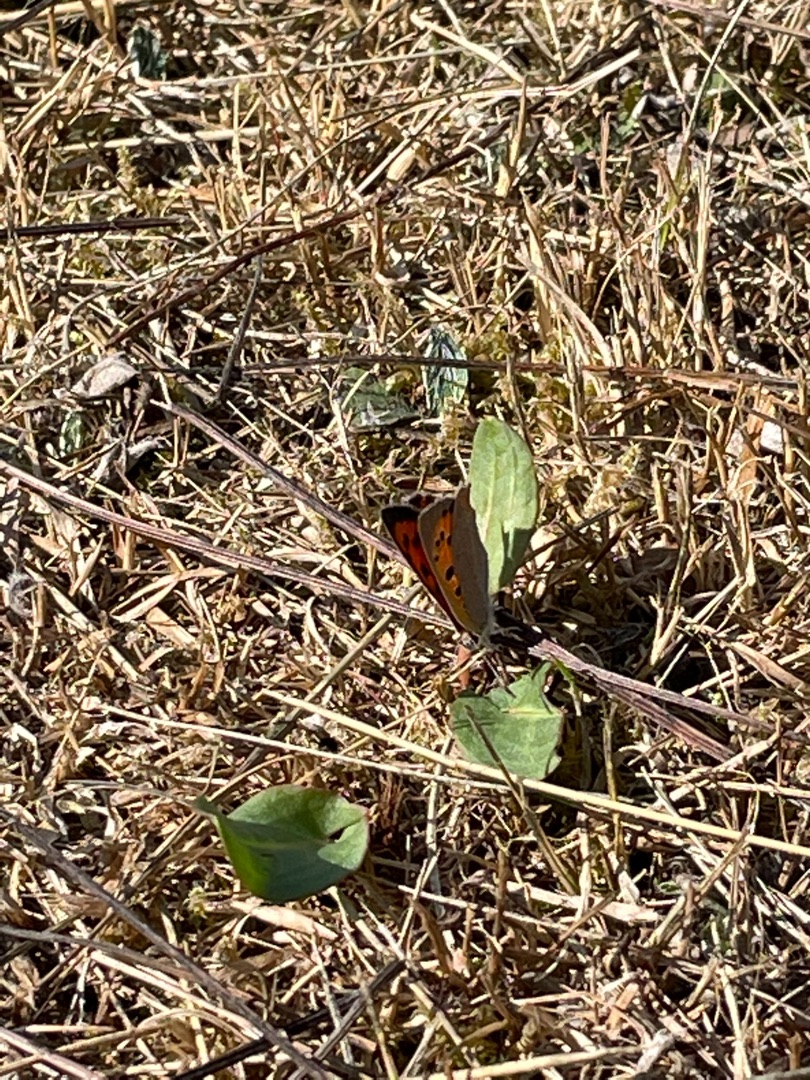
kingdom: Animalia
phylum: Arthropoda
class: Insecta
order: Lepidoptera
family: Lycaenidae
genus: Lycaena
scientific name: Lycaena phlaeas
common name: Lille ildfugl
